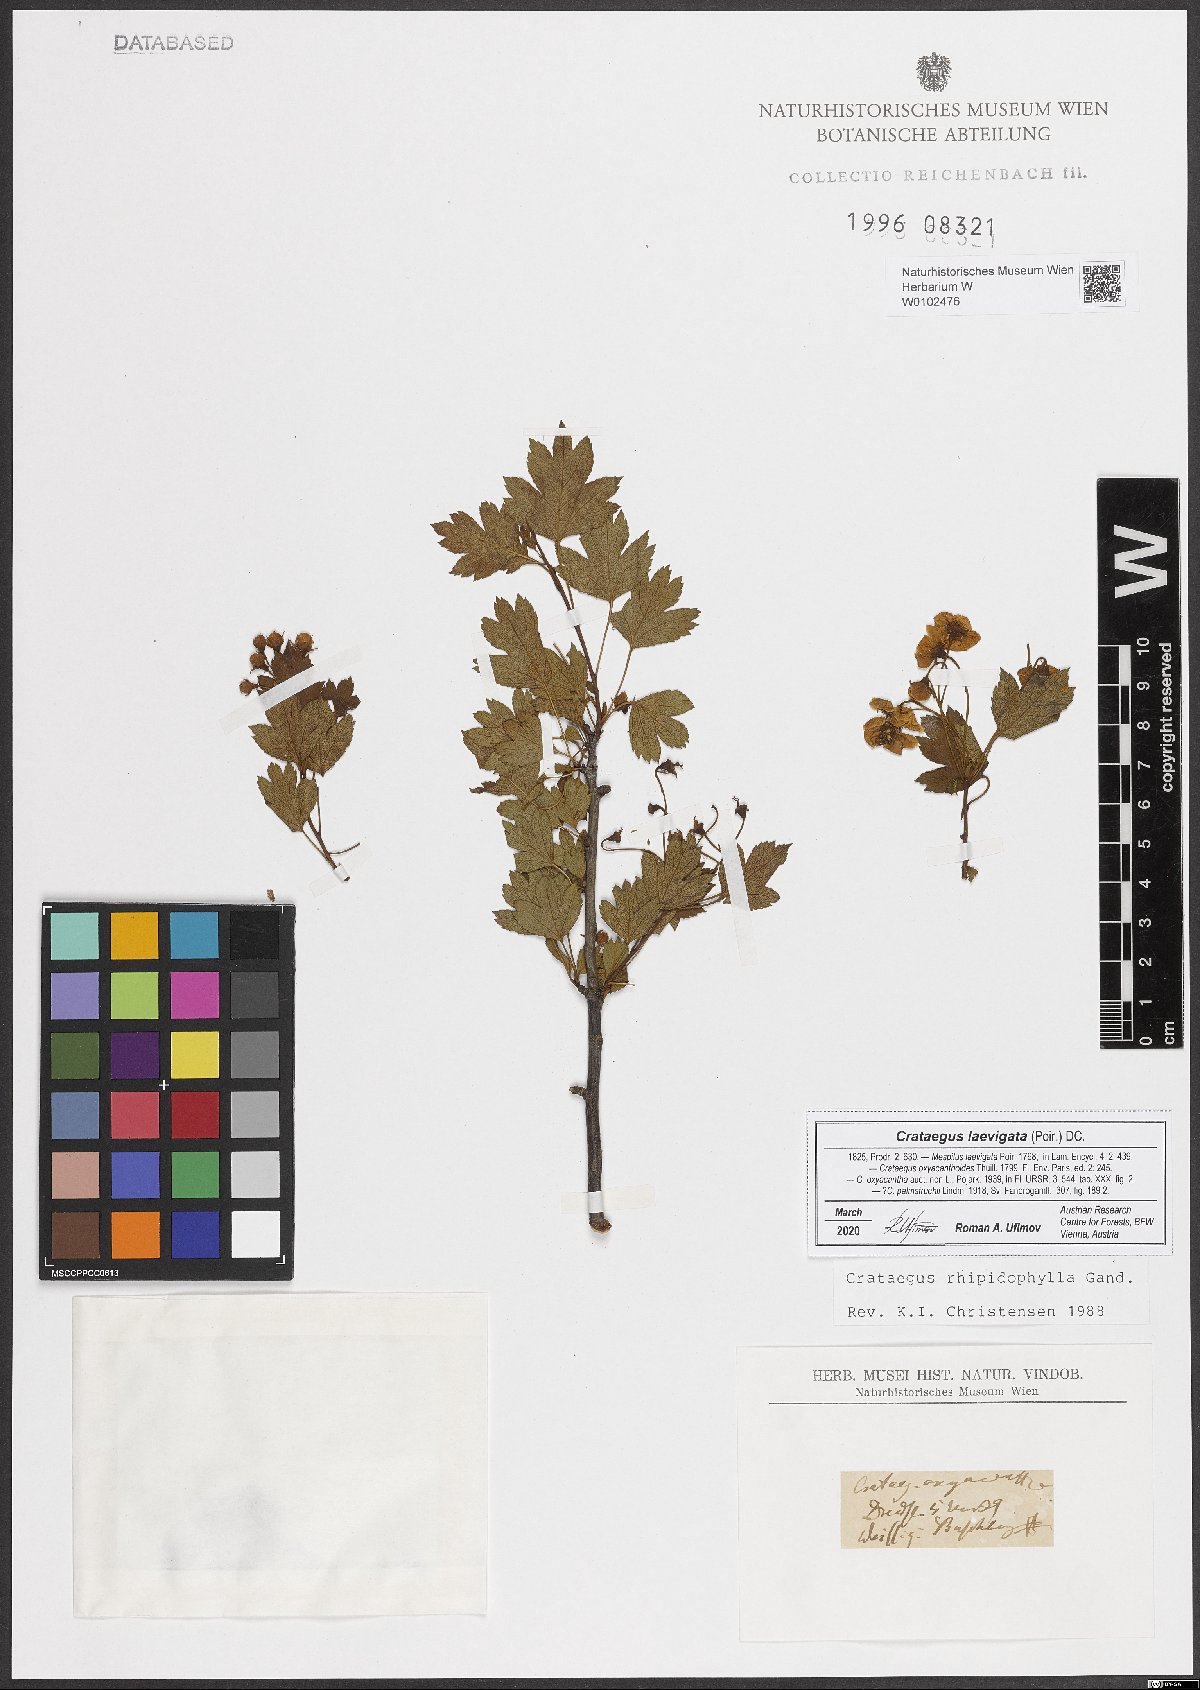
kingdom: Plantae
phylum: Tracheophyta
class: Magnoliopsida
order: Rosales
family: Rosaceae
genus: Crataegus
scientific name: Crataegus laevigata
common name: Midland hawthorn
